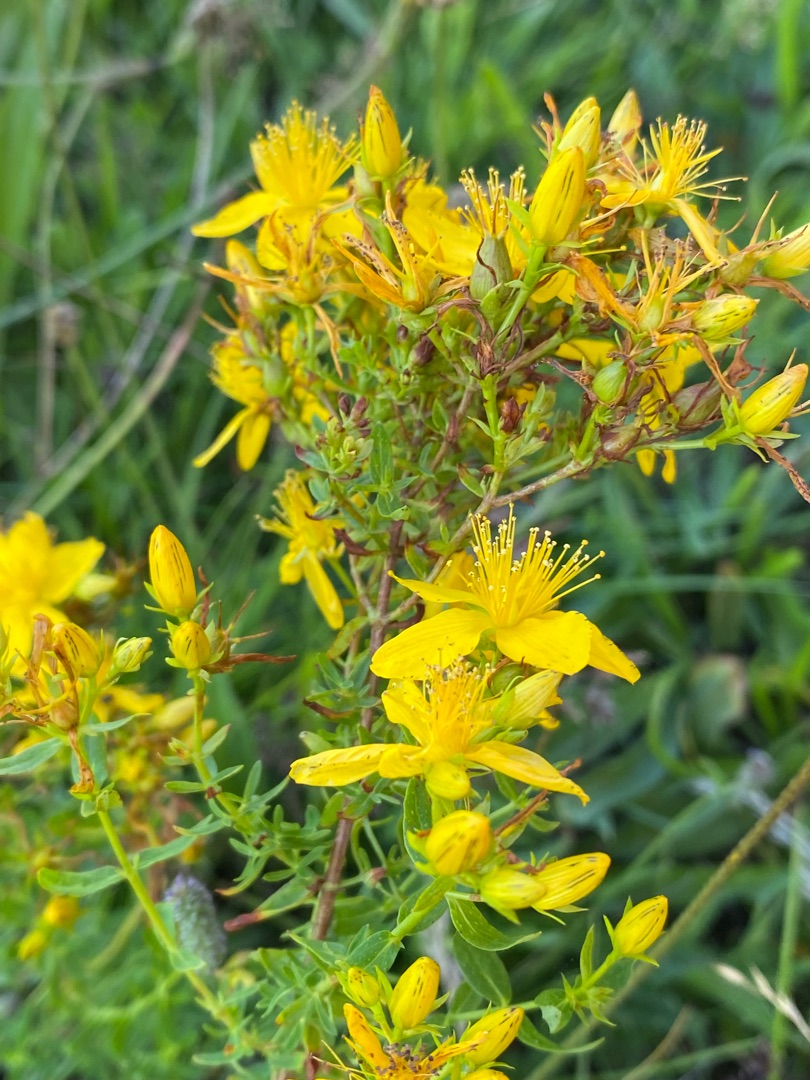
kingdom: Plantae
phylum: Tracheophyta
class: Magnoliopsida
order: Malpighiales
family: Hypericaceae
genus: Hypericum
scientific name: Hypericum perforatum
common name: Prikbladet perikon
